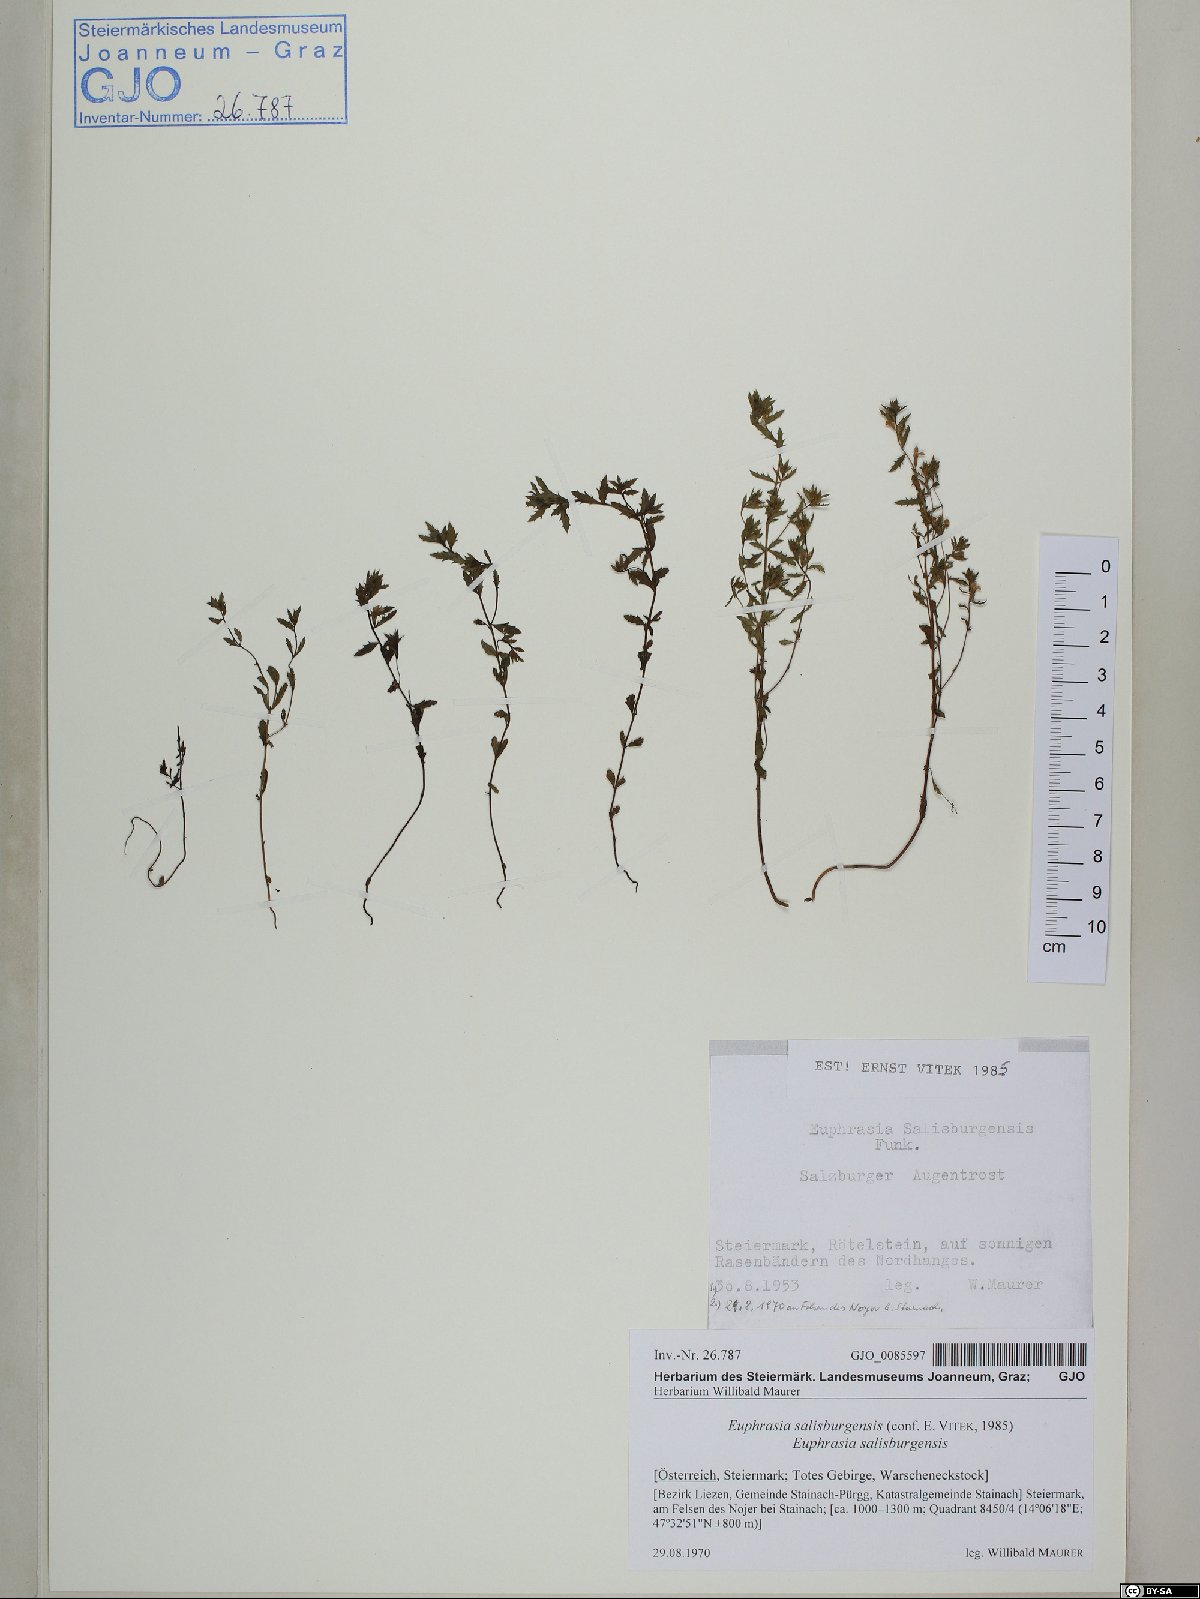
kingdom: Plantae
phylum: Tracheophyta
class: Magnoliopsida
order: Lamiales
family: Orobanchaceae
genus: Euphrasia
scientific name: Euphrasia salisburgensis
